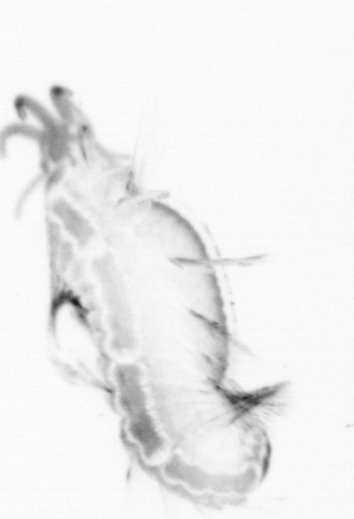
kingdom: Animalia
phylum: Annelida
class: Polychaeta
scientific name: Polychaeta
